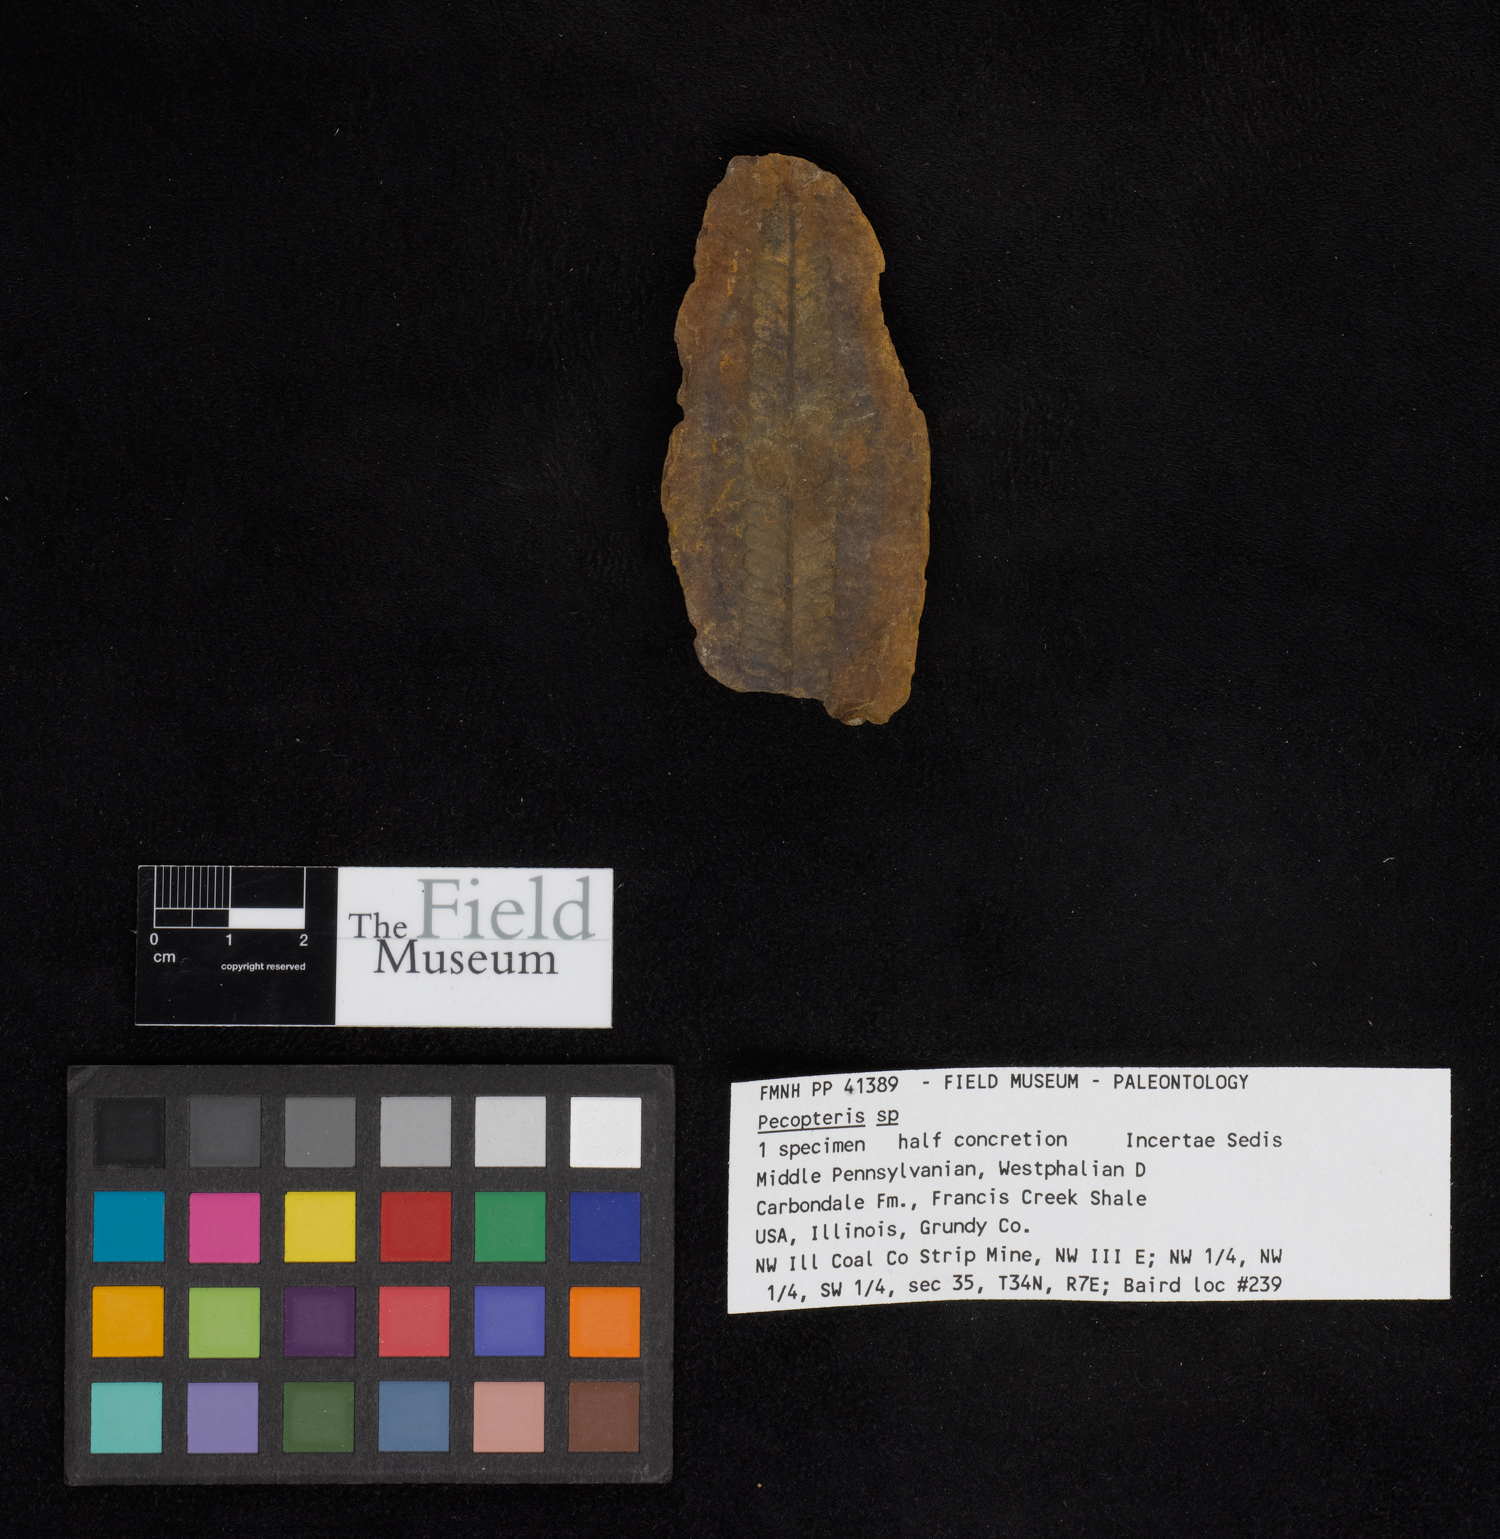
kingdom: Plantae
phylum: Tracheophyta
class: Polypodiopsida
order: Marattiales
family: Asterothecaceae
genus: Pecopteris
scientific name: Pecopteris
